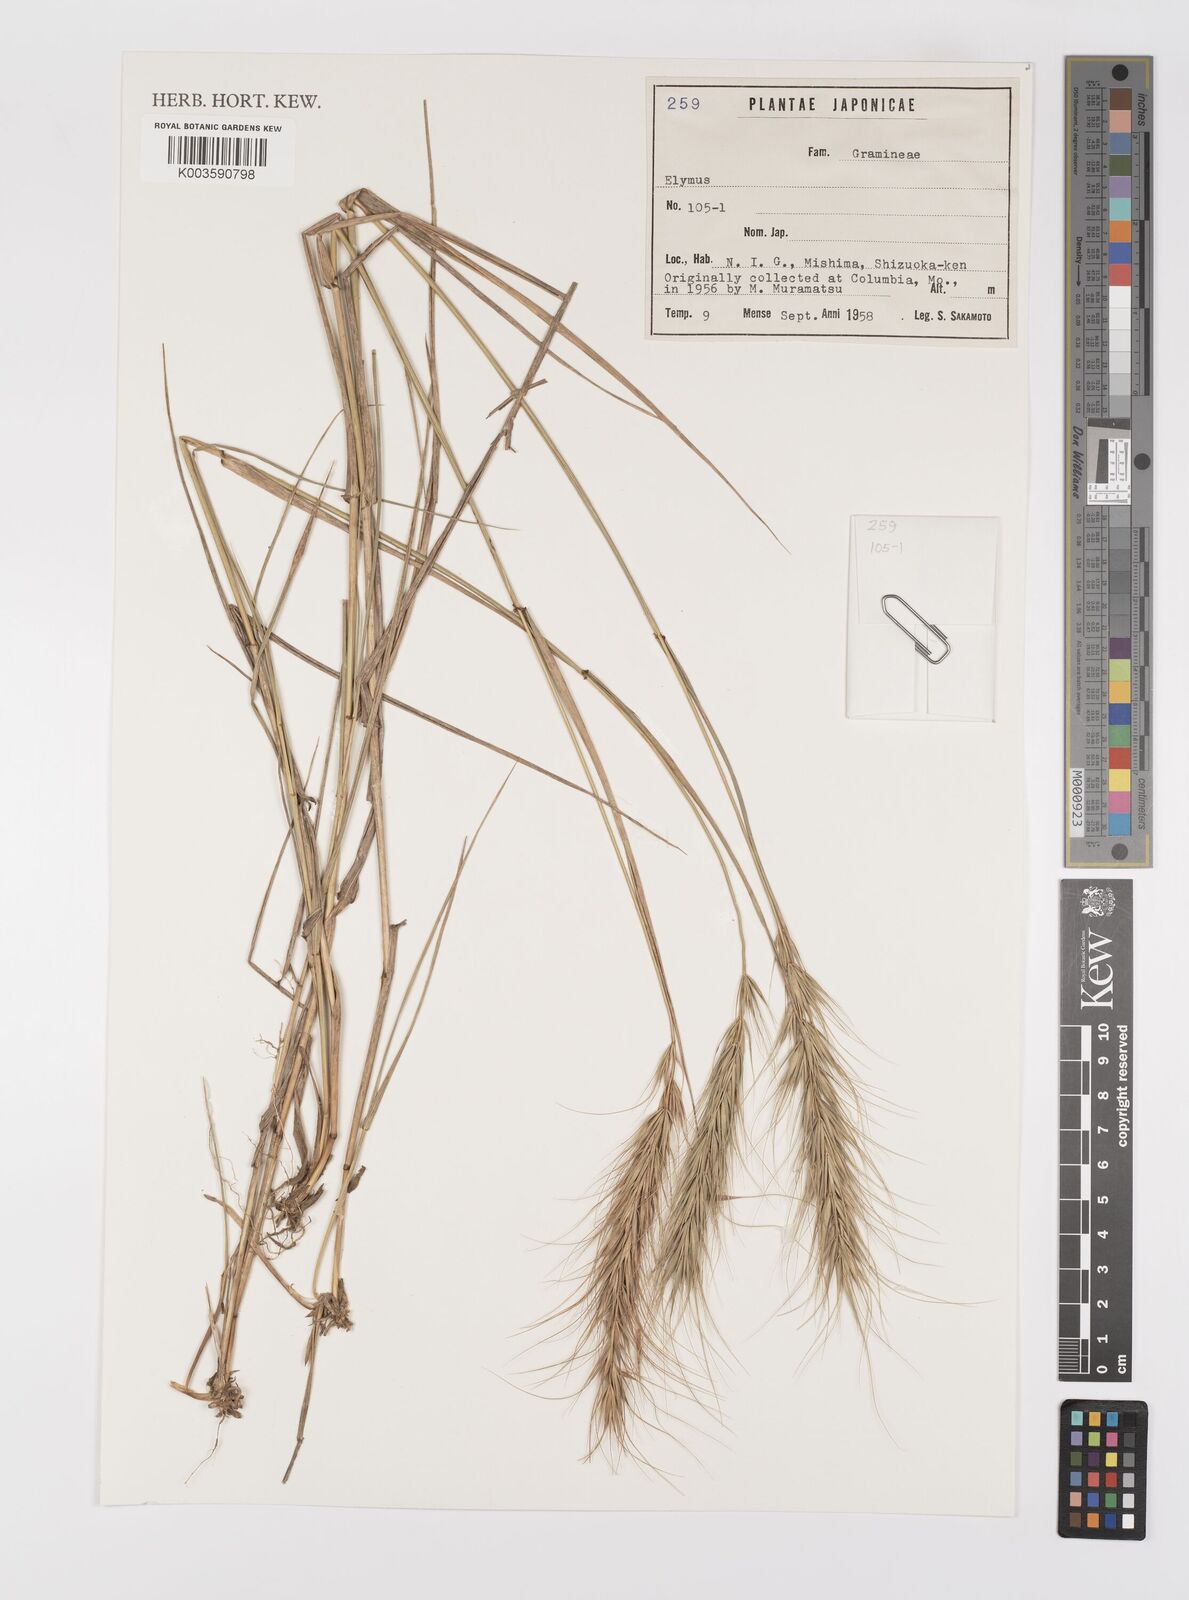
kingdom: Plantae
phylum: Tracheophyta
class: Liliopsida
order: Poales
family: Poaceae
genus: Elymus
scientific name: Elymus
